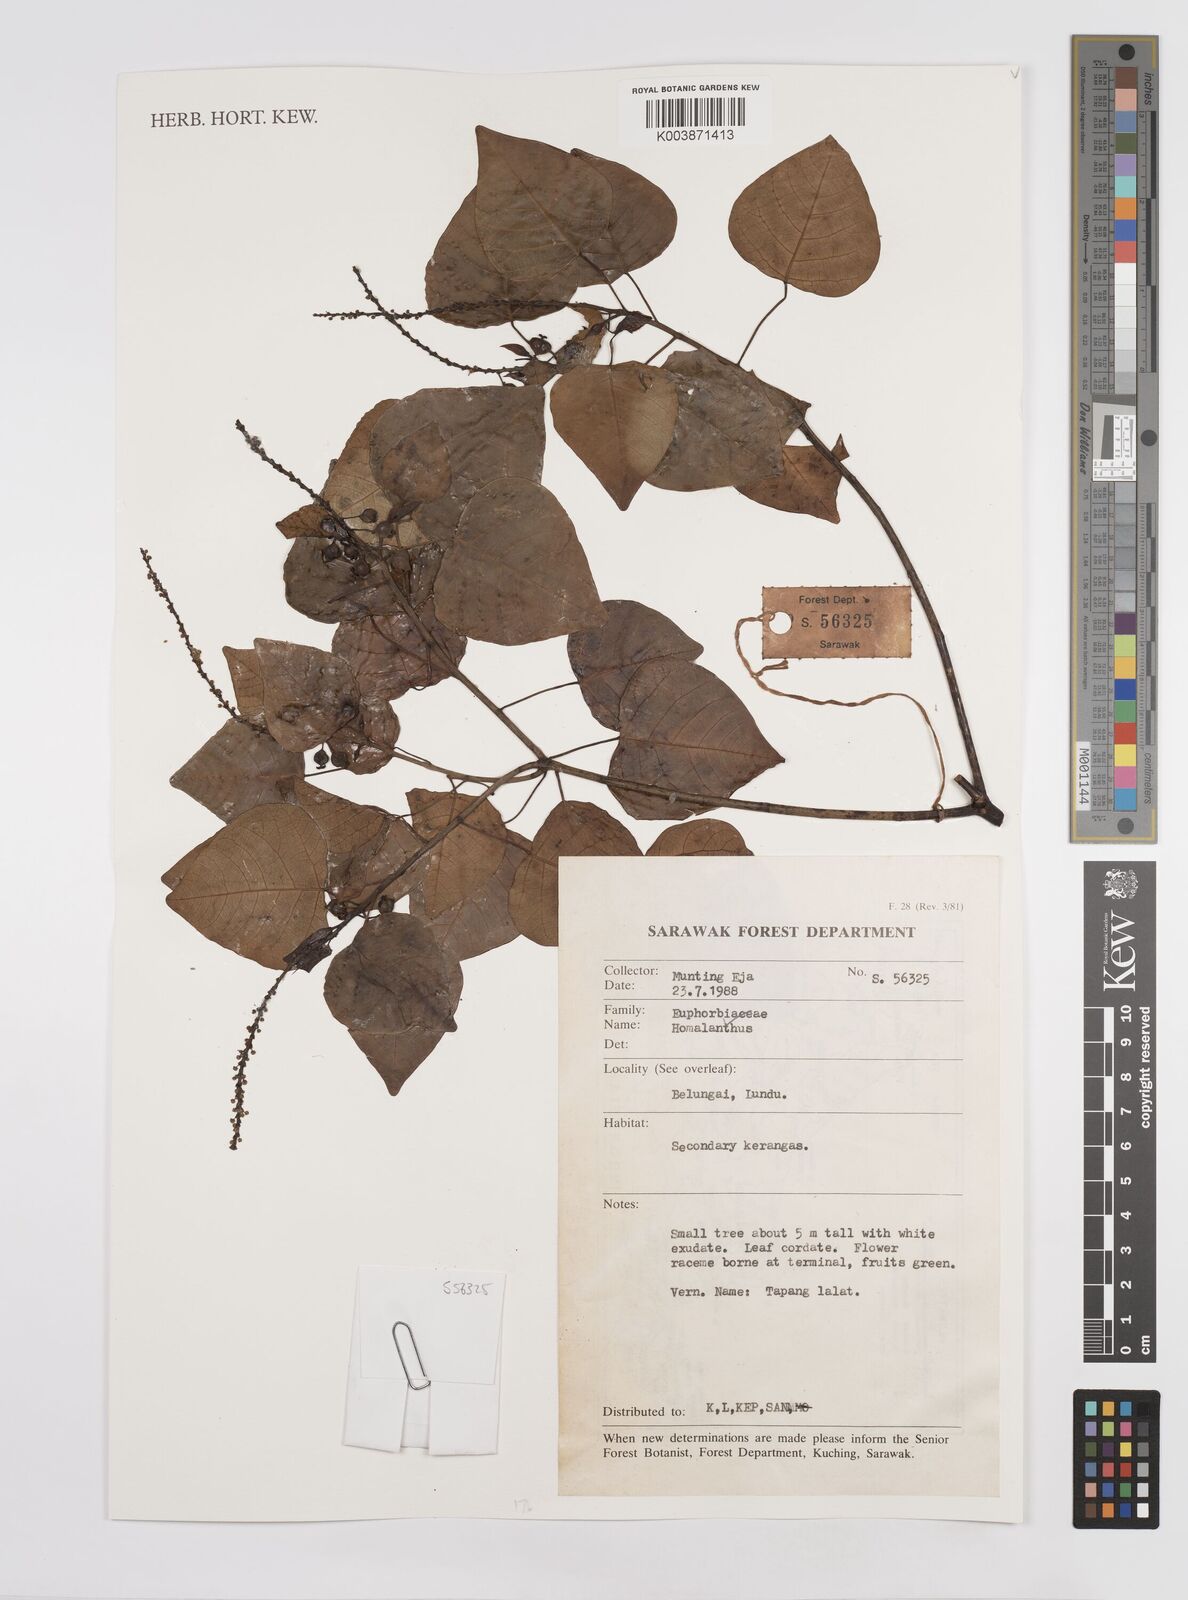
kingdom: Plantae
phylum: Tracheophyta
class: Magnoliopsida
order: Malpighiales
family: Euphorbiaceae
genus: Homalanthus
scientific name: Homalanthus populneus
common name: Spurge
